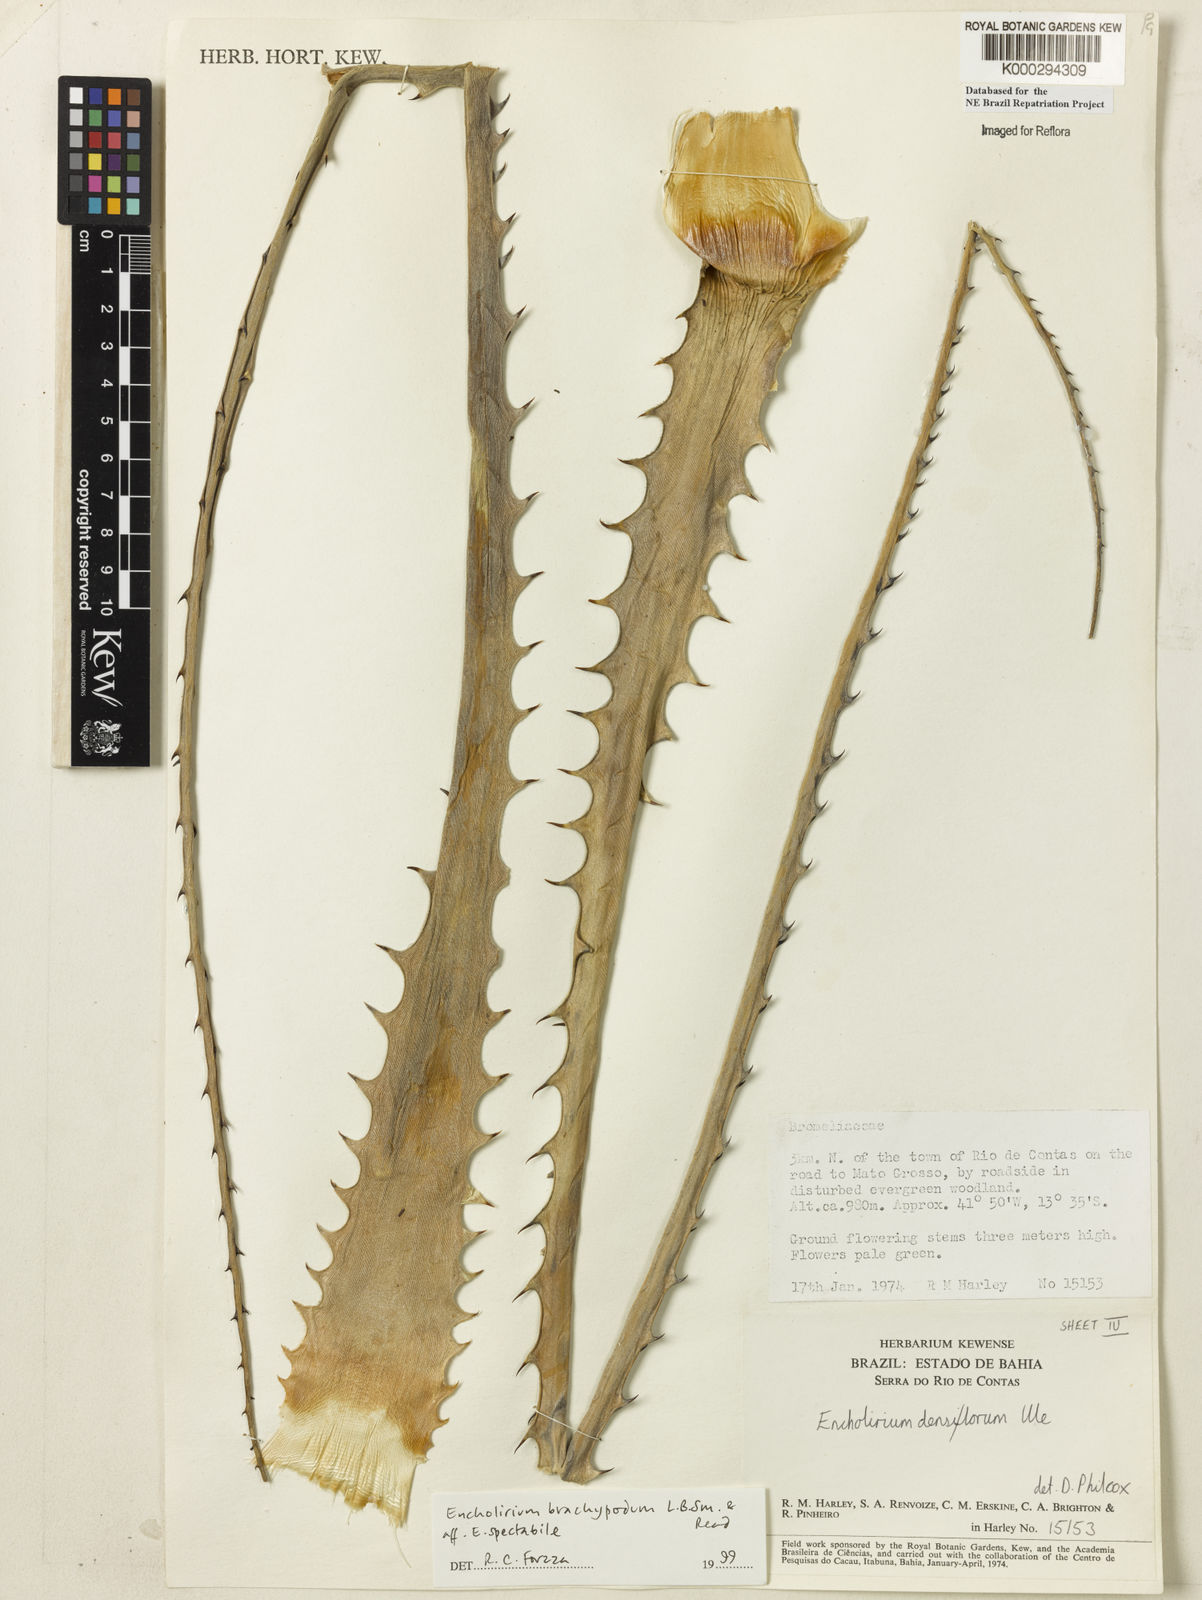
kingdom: Plantae
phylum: Tracheophyta
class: Liliopsida
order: Poales
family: Bromeliaceae
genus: Encholirium
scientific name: Encholirium brachypodum
